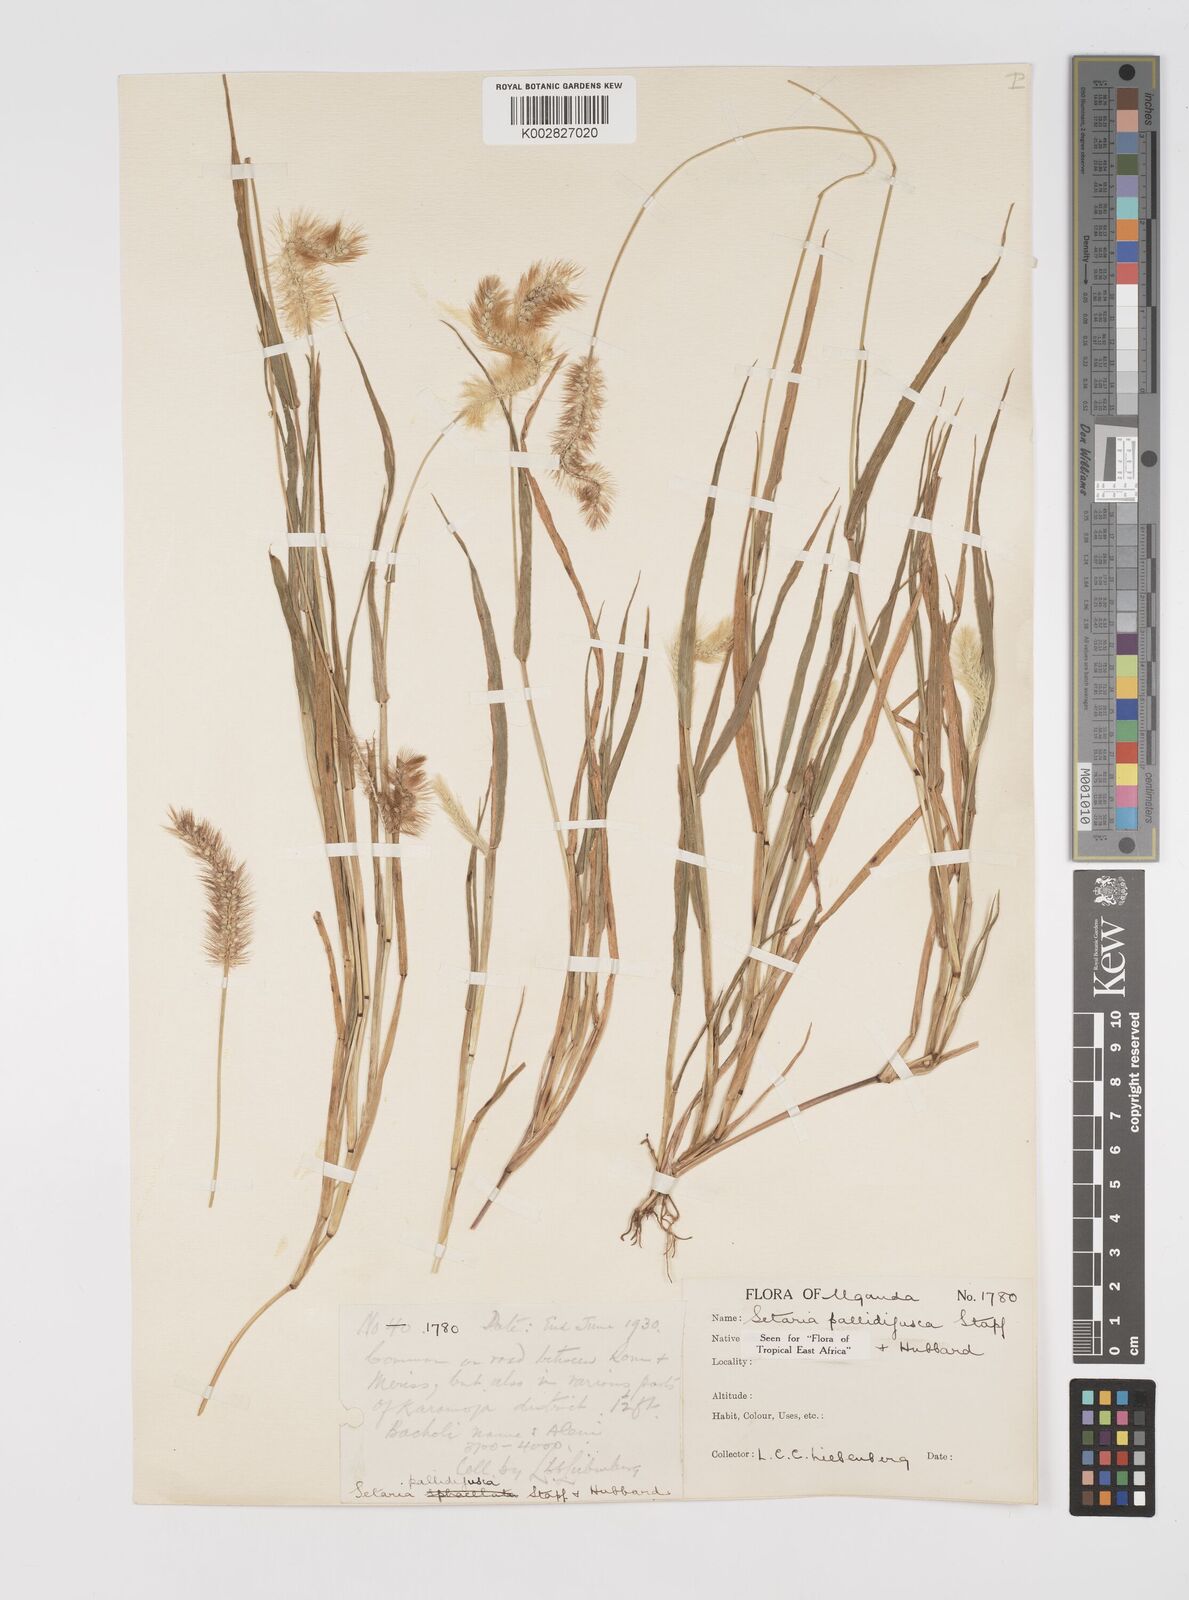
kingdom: Plantae
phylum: Tracheophyta
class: Liliopsida
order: Poales
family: Poaceae
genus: Setaria
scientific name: Setaria pumila
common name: Yellow bristle-grass
